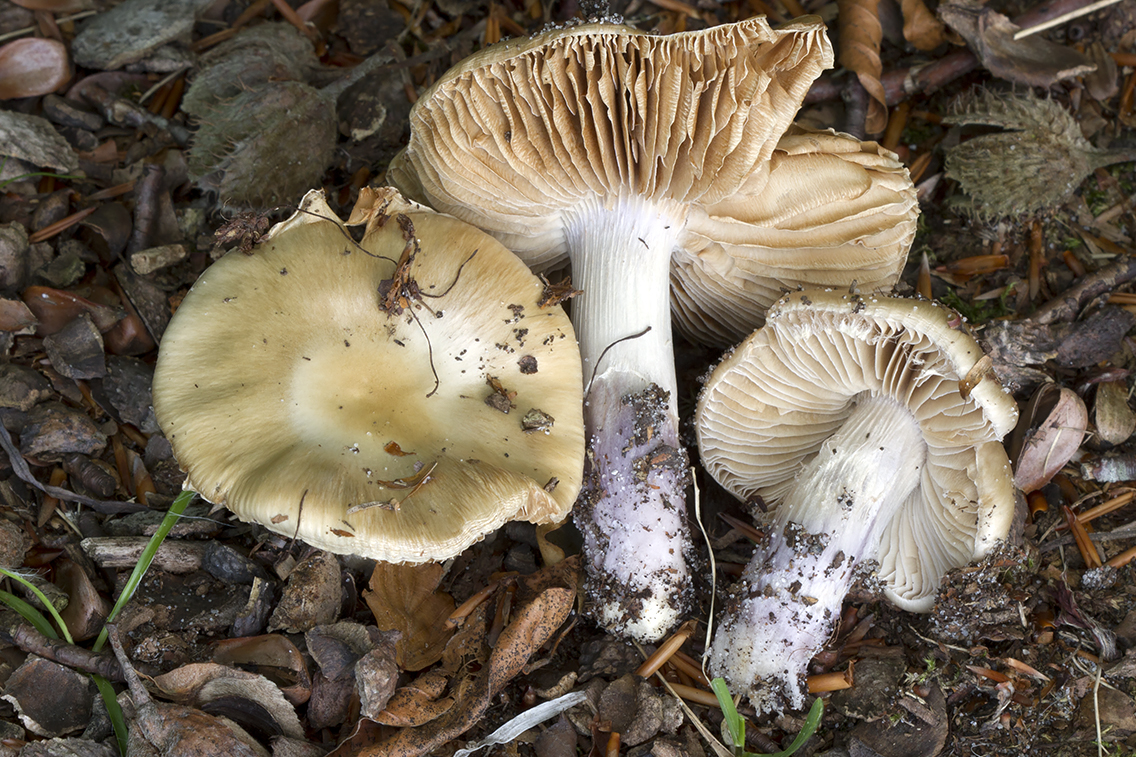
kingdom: Fungi
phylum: Basidiomycota
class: Agaricomycetes
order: Agaricales
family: Cortinariaceae
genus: Cortinarius
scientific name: Cortinarius livido-ochraceus
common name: halvhøj slørhat
